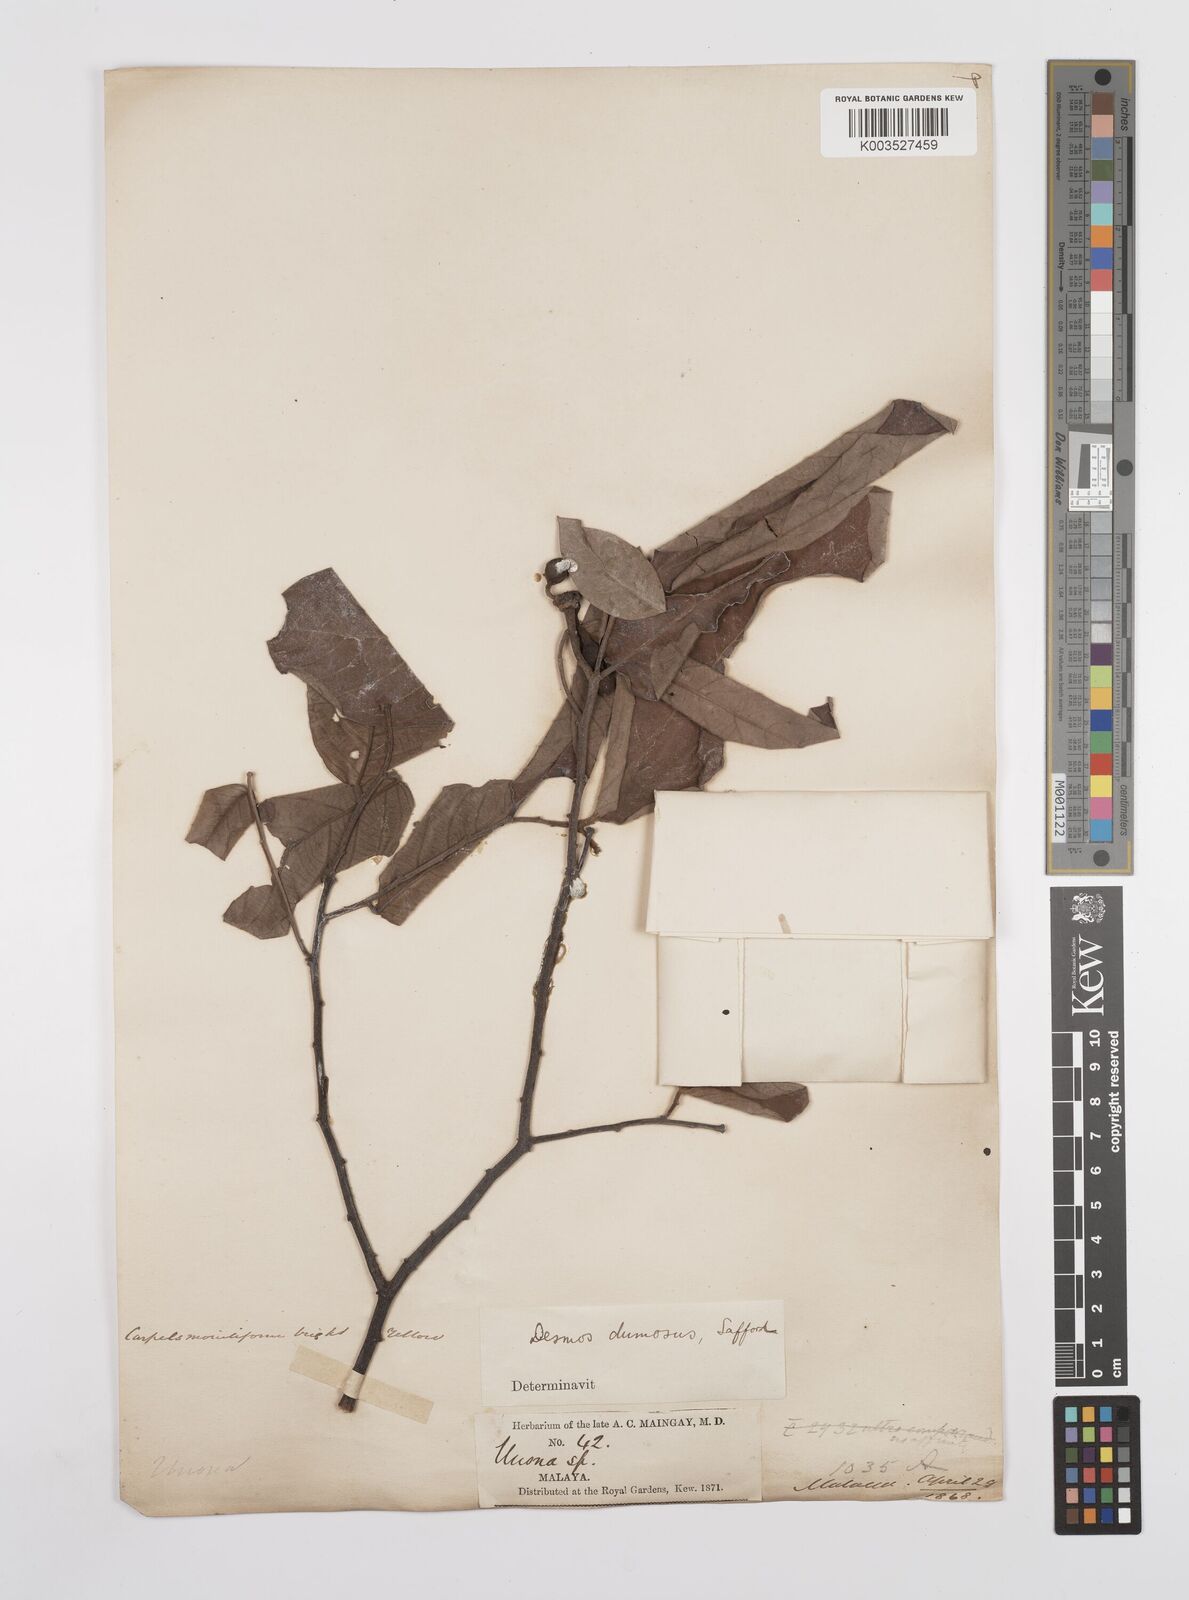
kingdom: Plantae
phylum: Tracheophyta
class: Magnoliopsida
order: Magnoliales
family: Annonaceae
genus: Desmos
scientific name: Desmos dumosus
